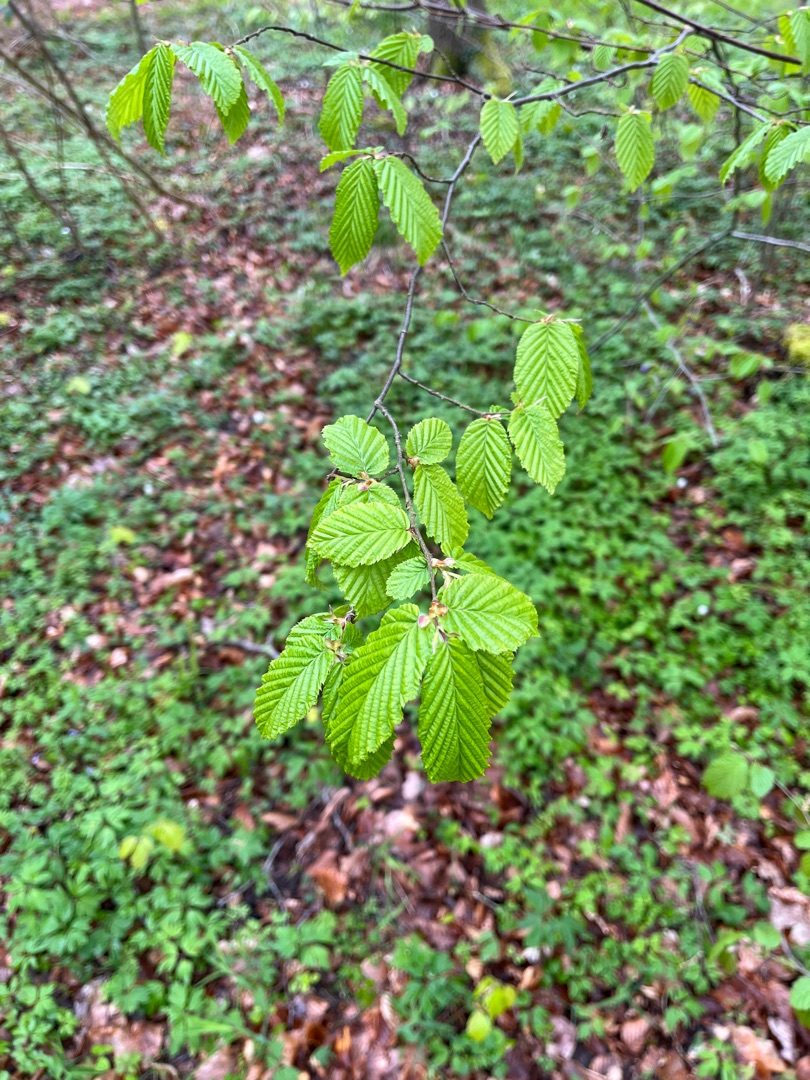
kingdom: Plantae
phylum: Tracheophyta
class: Magnoliopsida
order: Fagales
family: Betulaceae
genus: Corylus
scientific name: Corylus avellana
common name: Hassel
